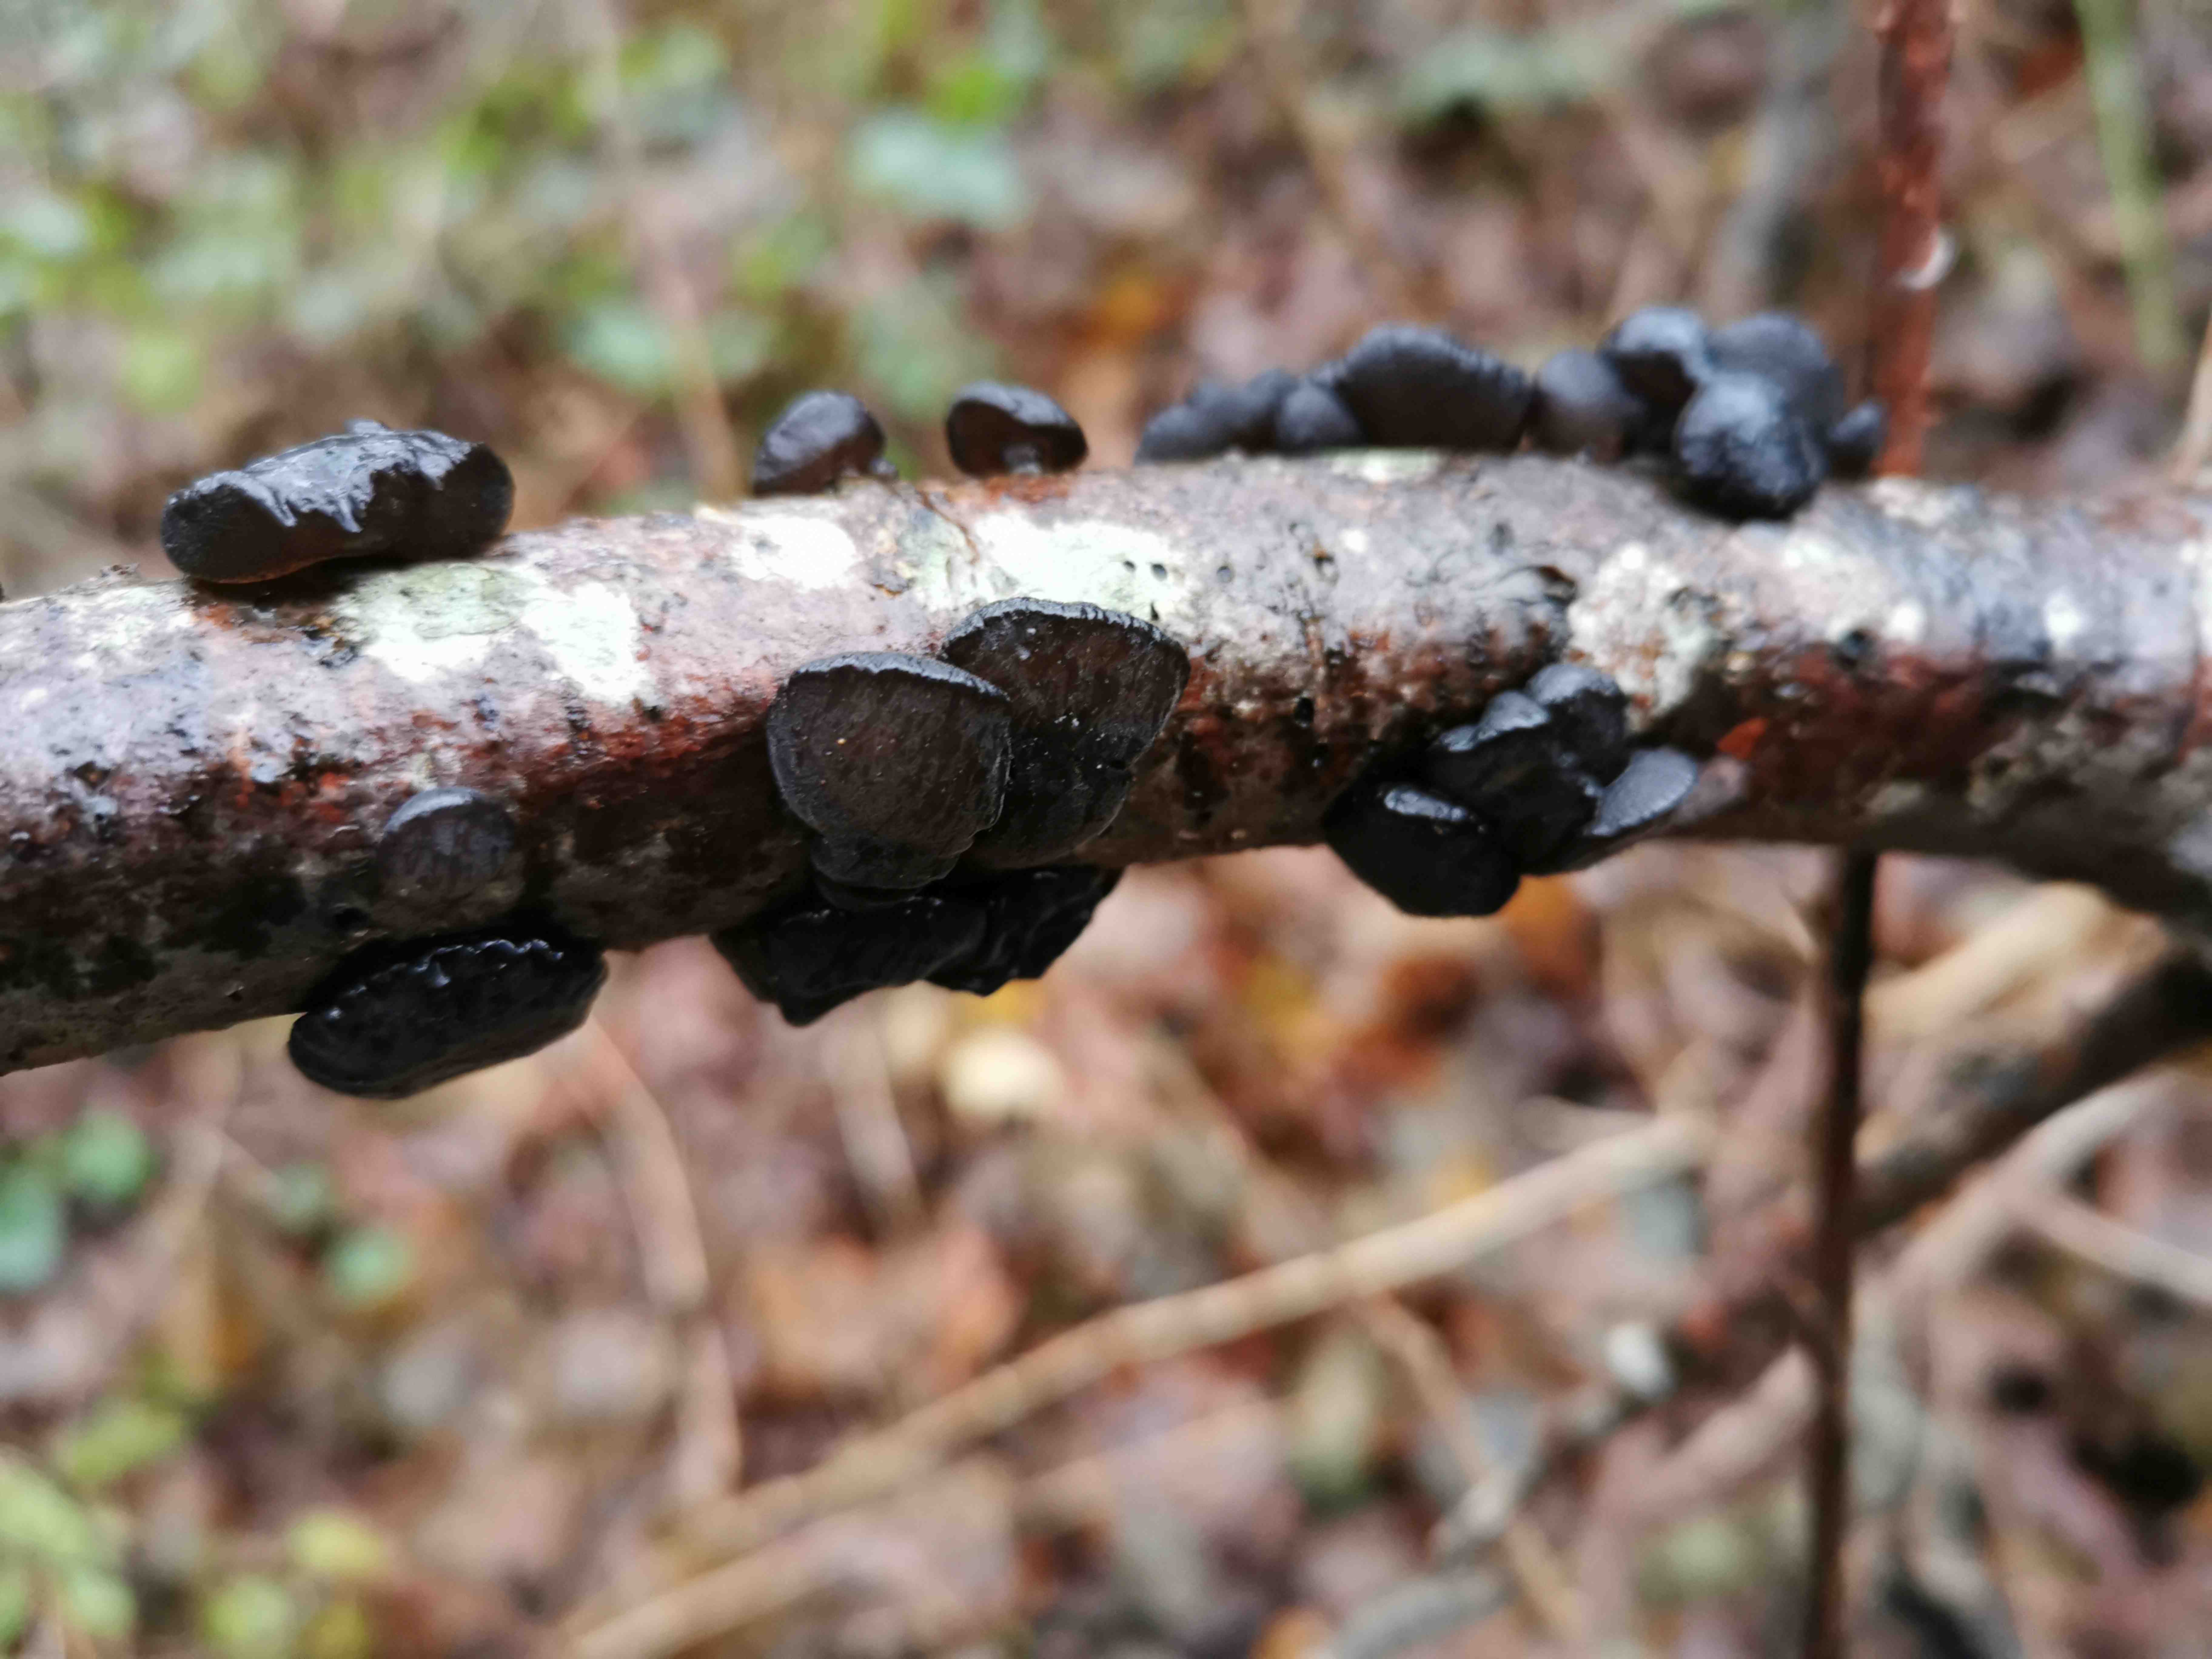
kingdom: Fungi
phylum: Basidiomycota
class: Agaricomycetes
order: Auriculariales
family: Auriculariaceae
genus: Exidia
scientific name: Exidia glandulosa
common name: ege-bævretop
